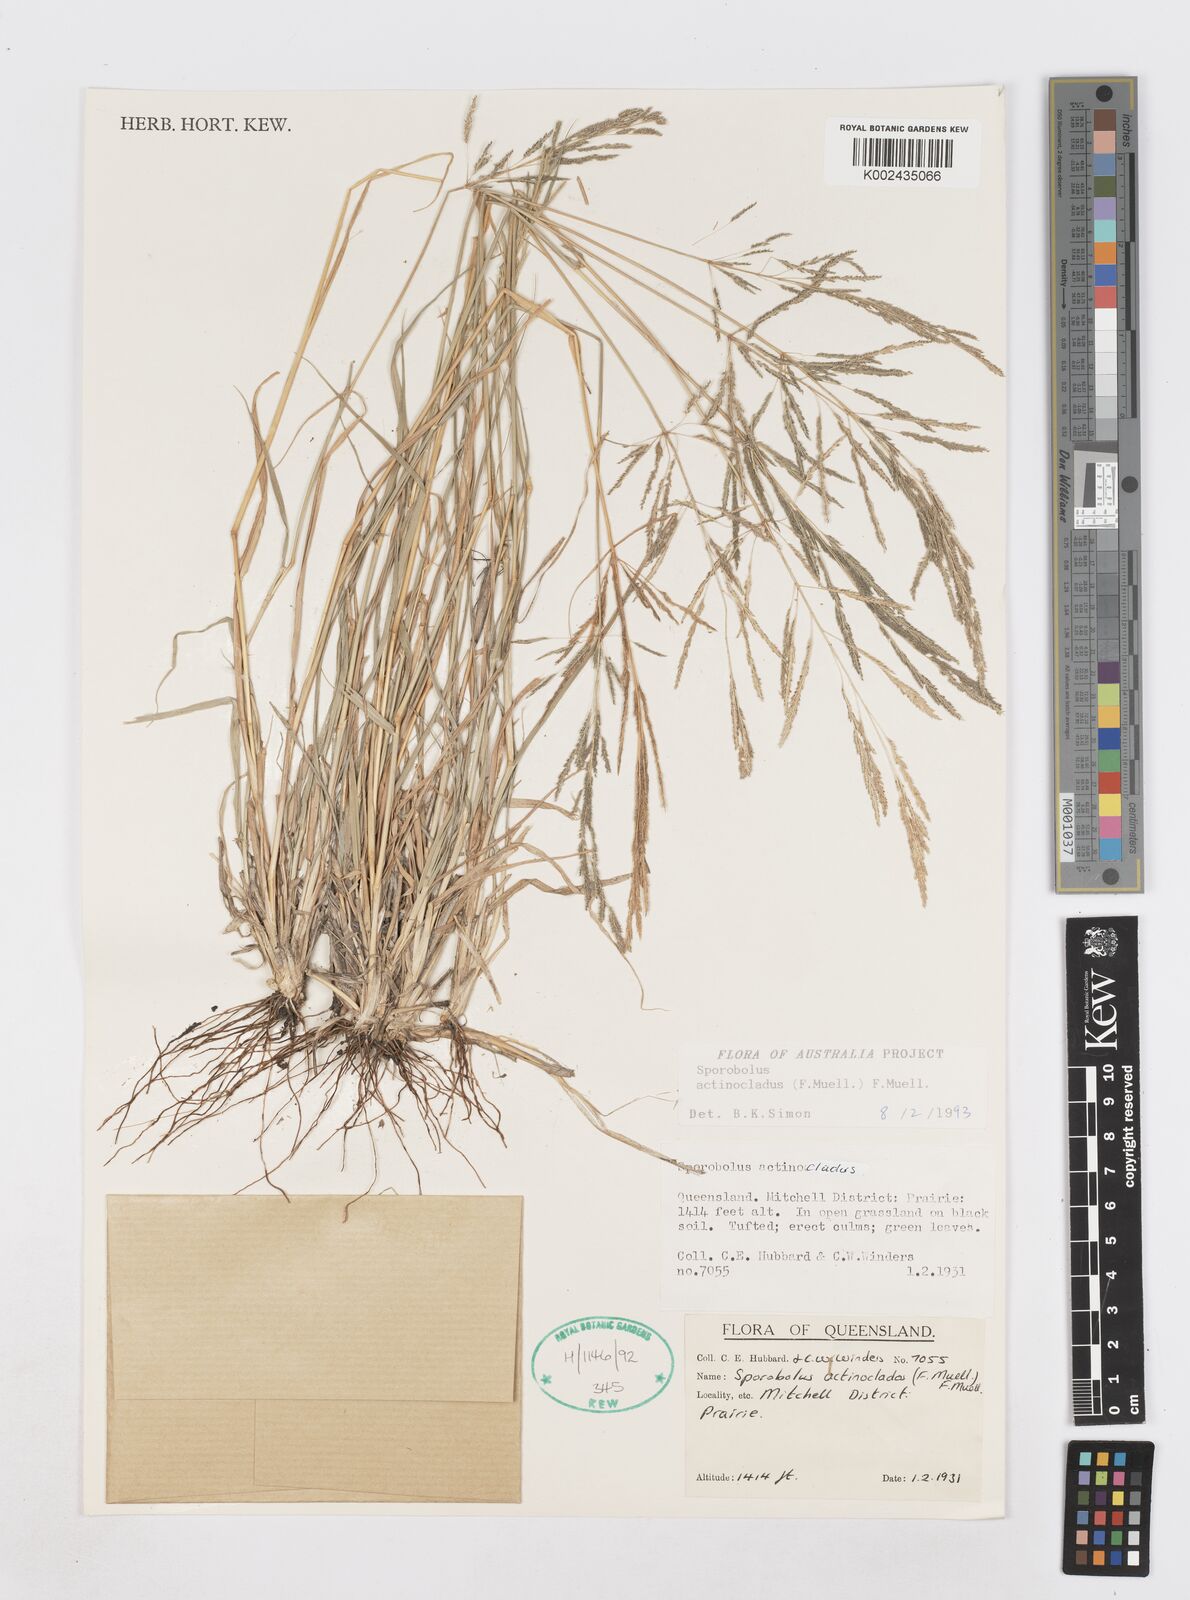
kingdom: Plantae
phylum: Tracheophyta
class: Liliopsida
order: Poales
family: Poaceae
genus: Sporobolus
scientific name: Sporobolus actinocladus
